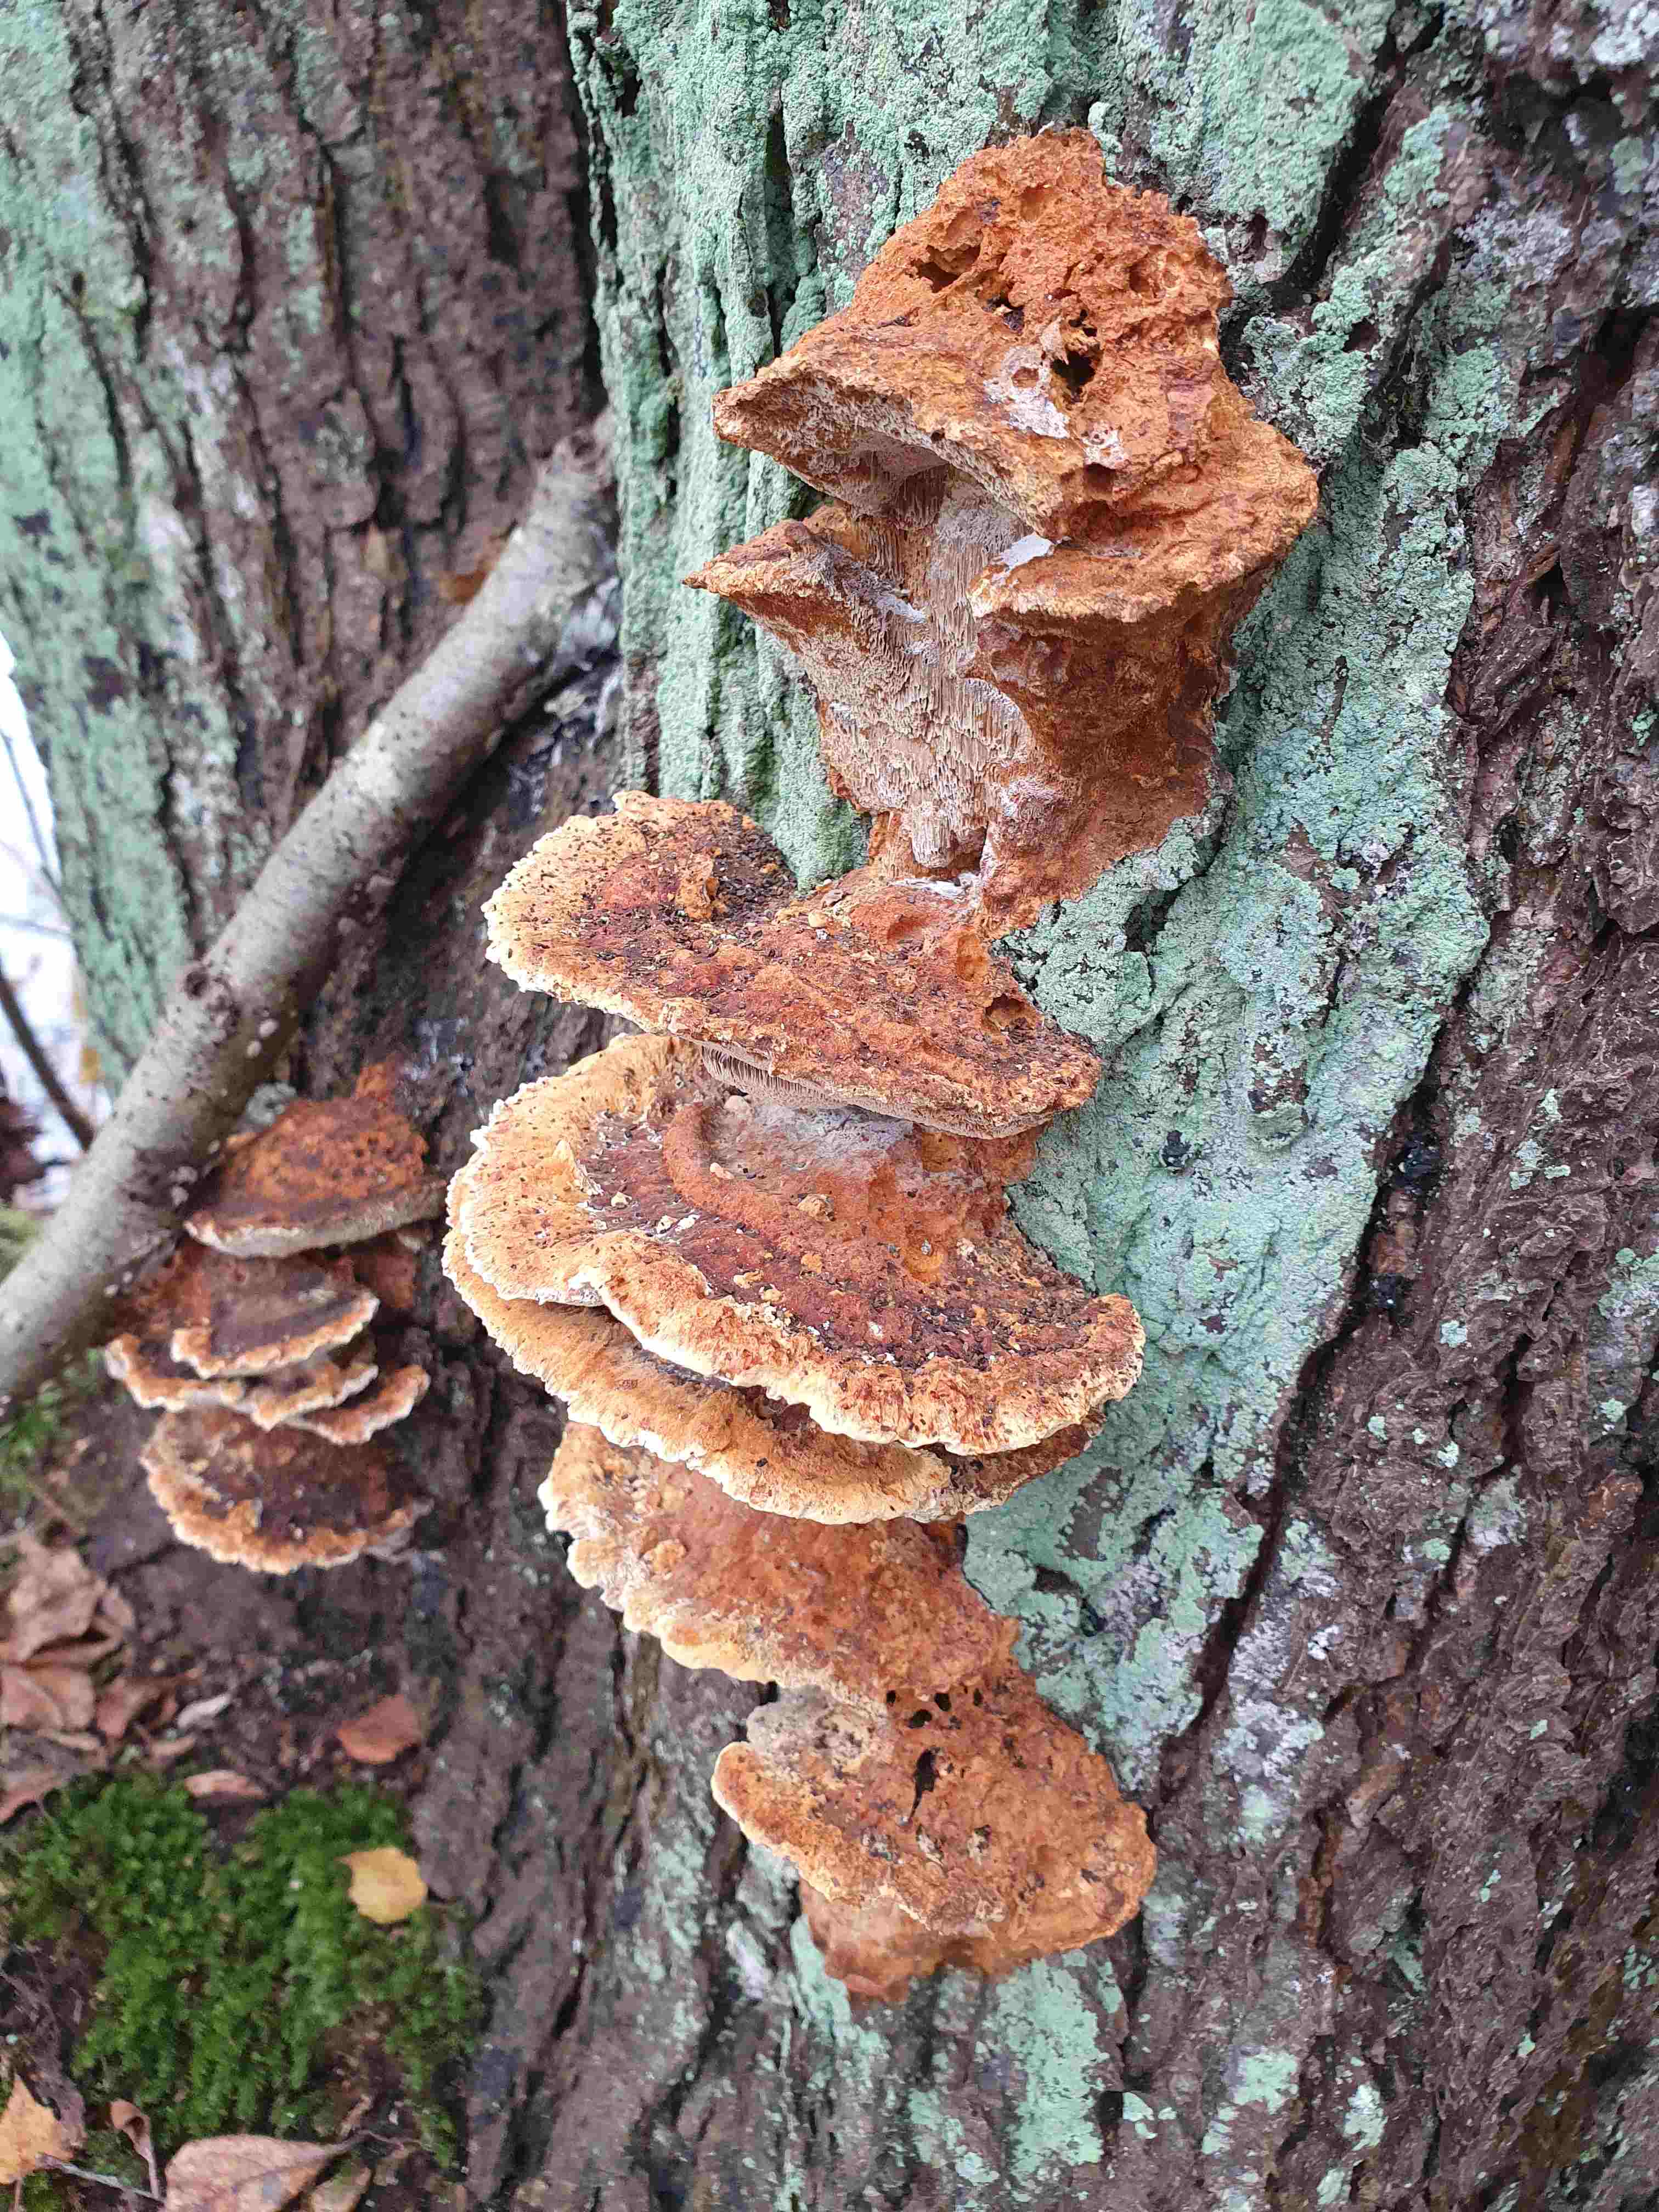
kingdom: Fungi
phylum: Basidiomycota
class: Agaricomycetes
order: Hymenochaetales
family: Hymenochaetaceae
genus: Xanthoporia
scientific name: Xanthoporia radiata
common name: elle-spejlporesvamp
